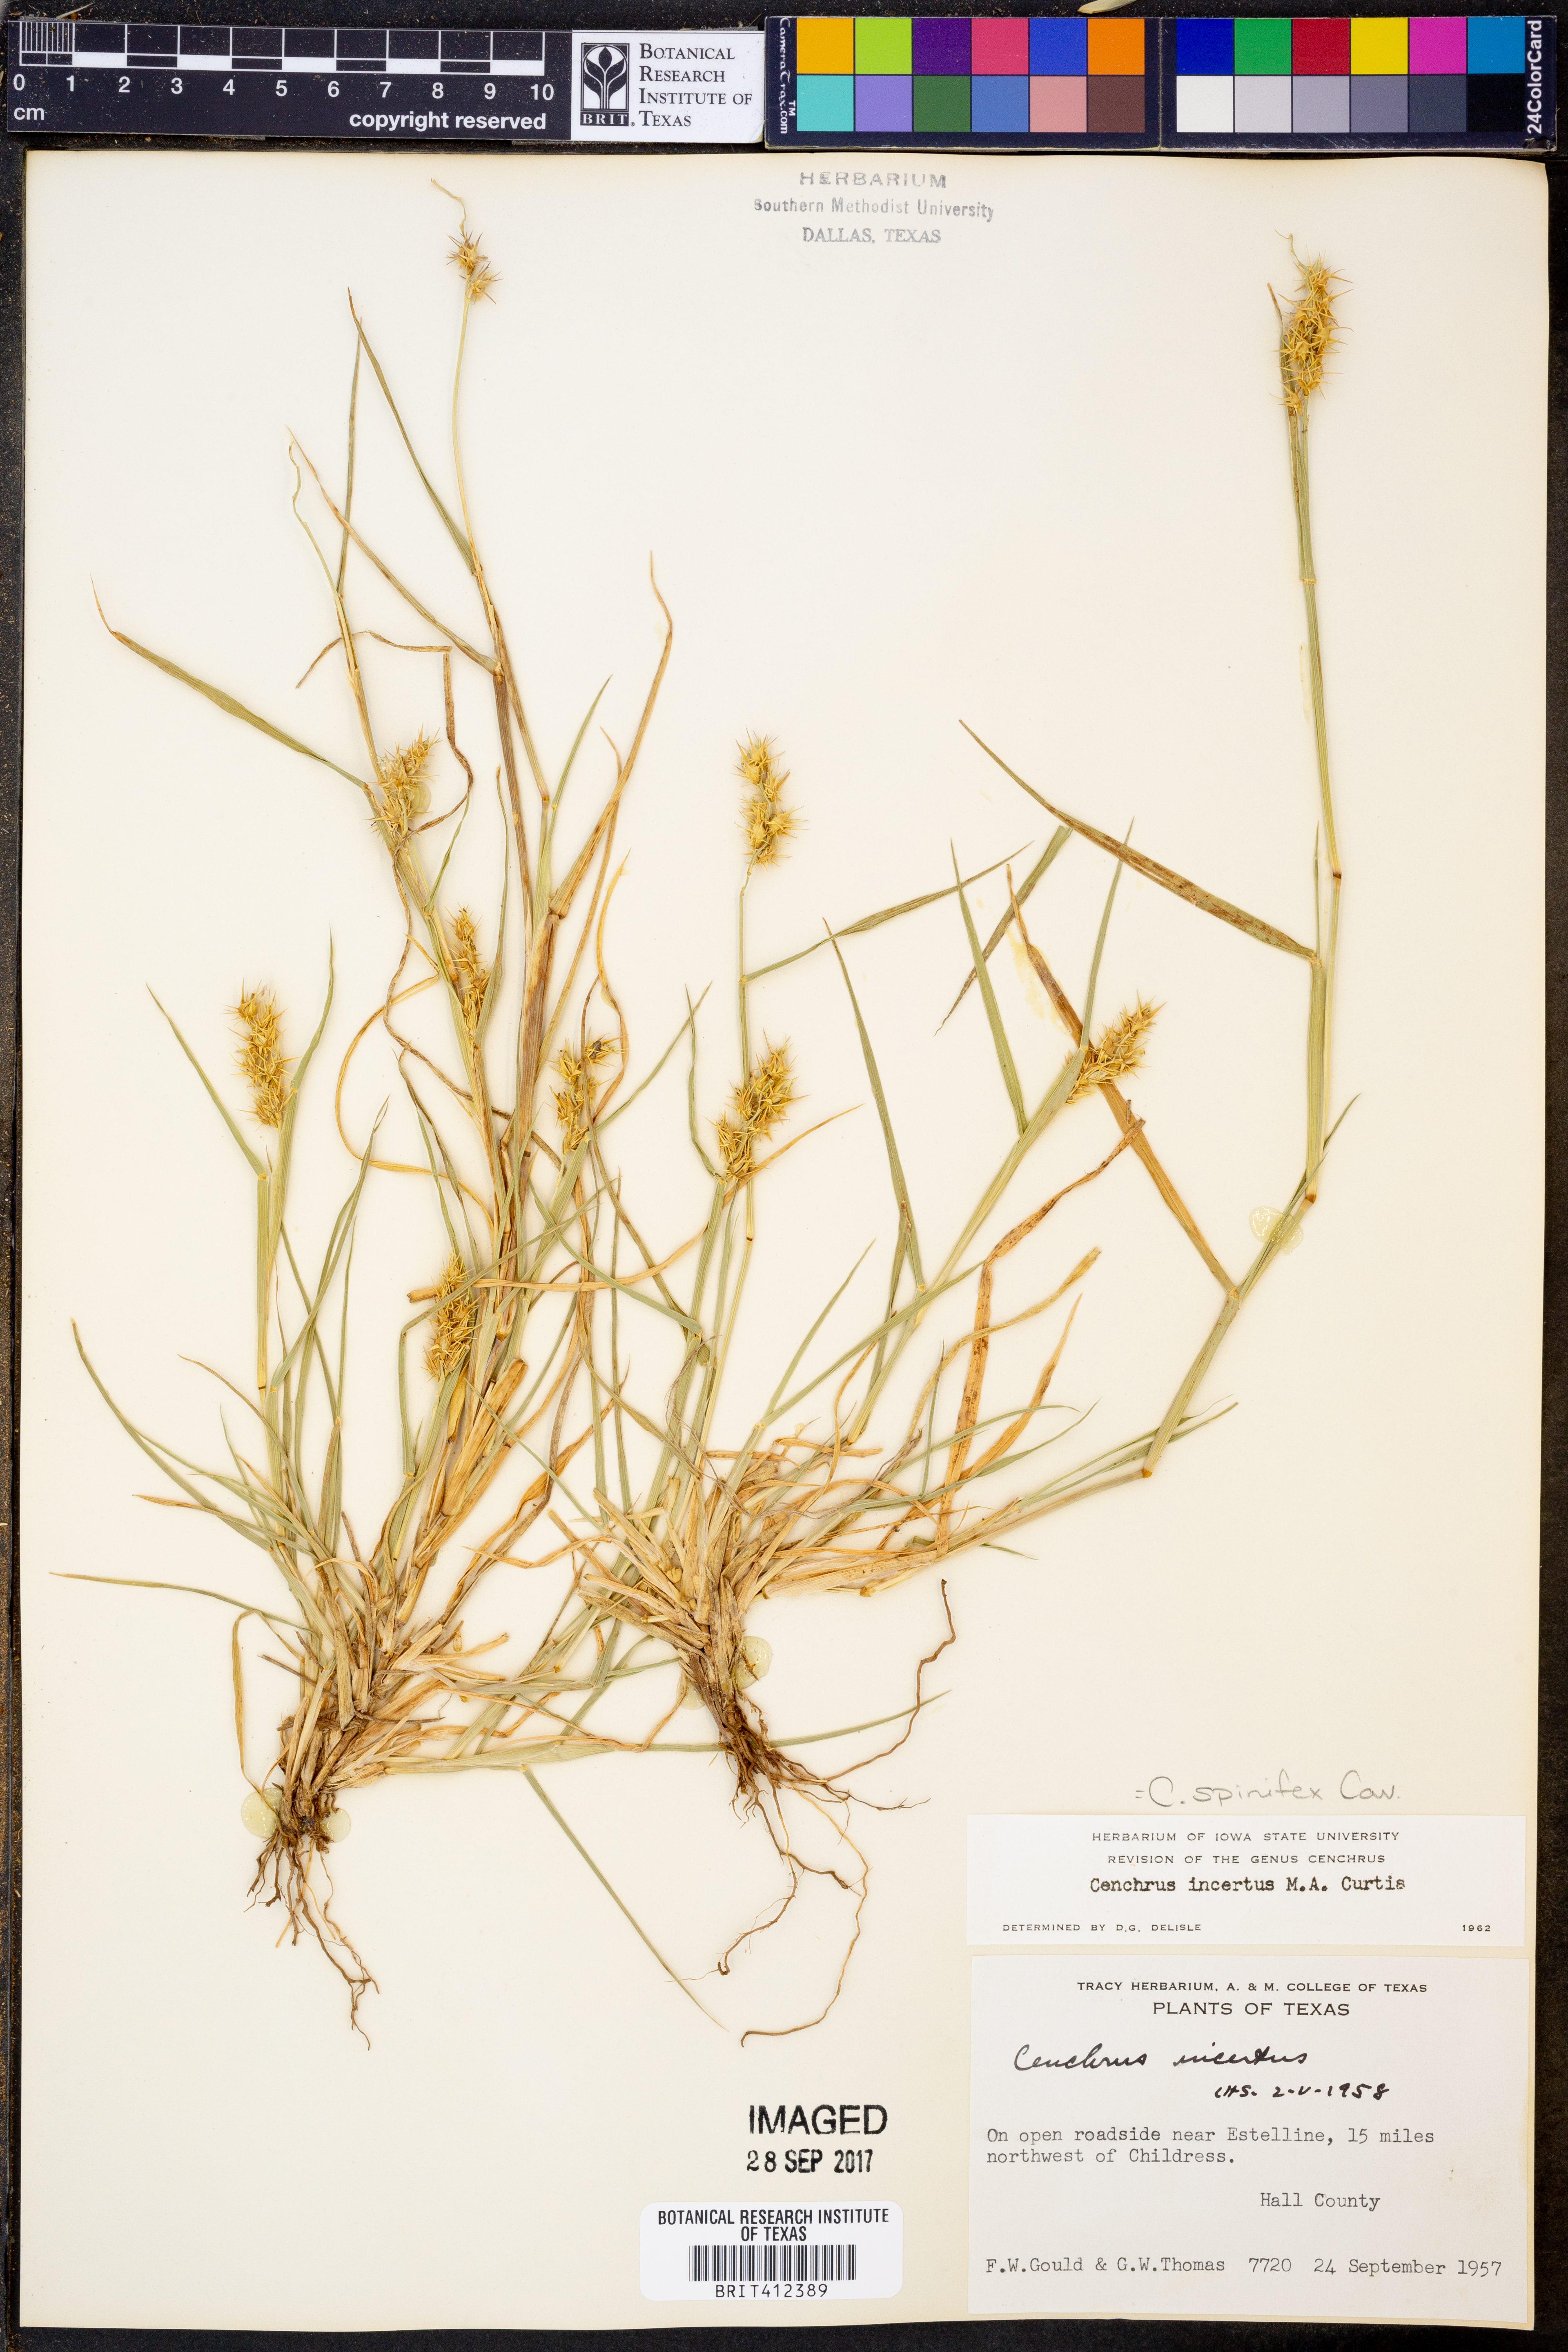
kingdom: Plantae
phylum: Tracheophyta
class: Liliopsida
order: Poales
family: Poaceae
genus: Cenchrus
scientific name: Cenchrus spinifex
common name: Coast sandbur
